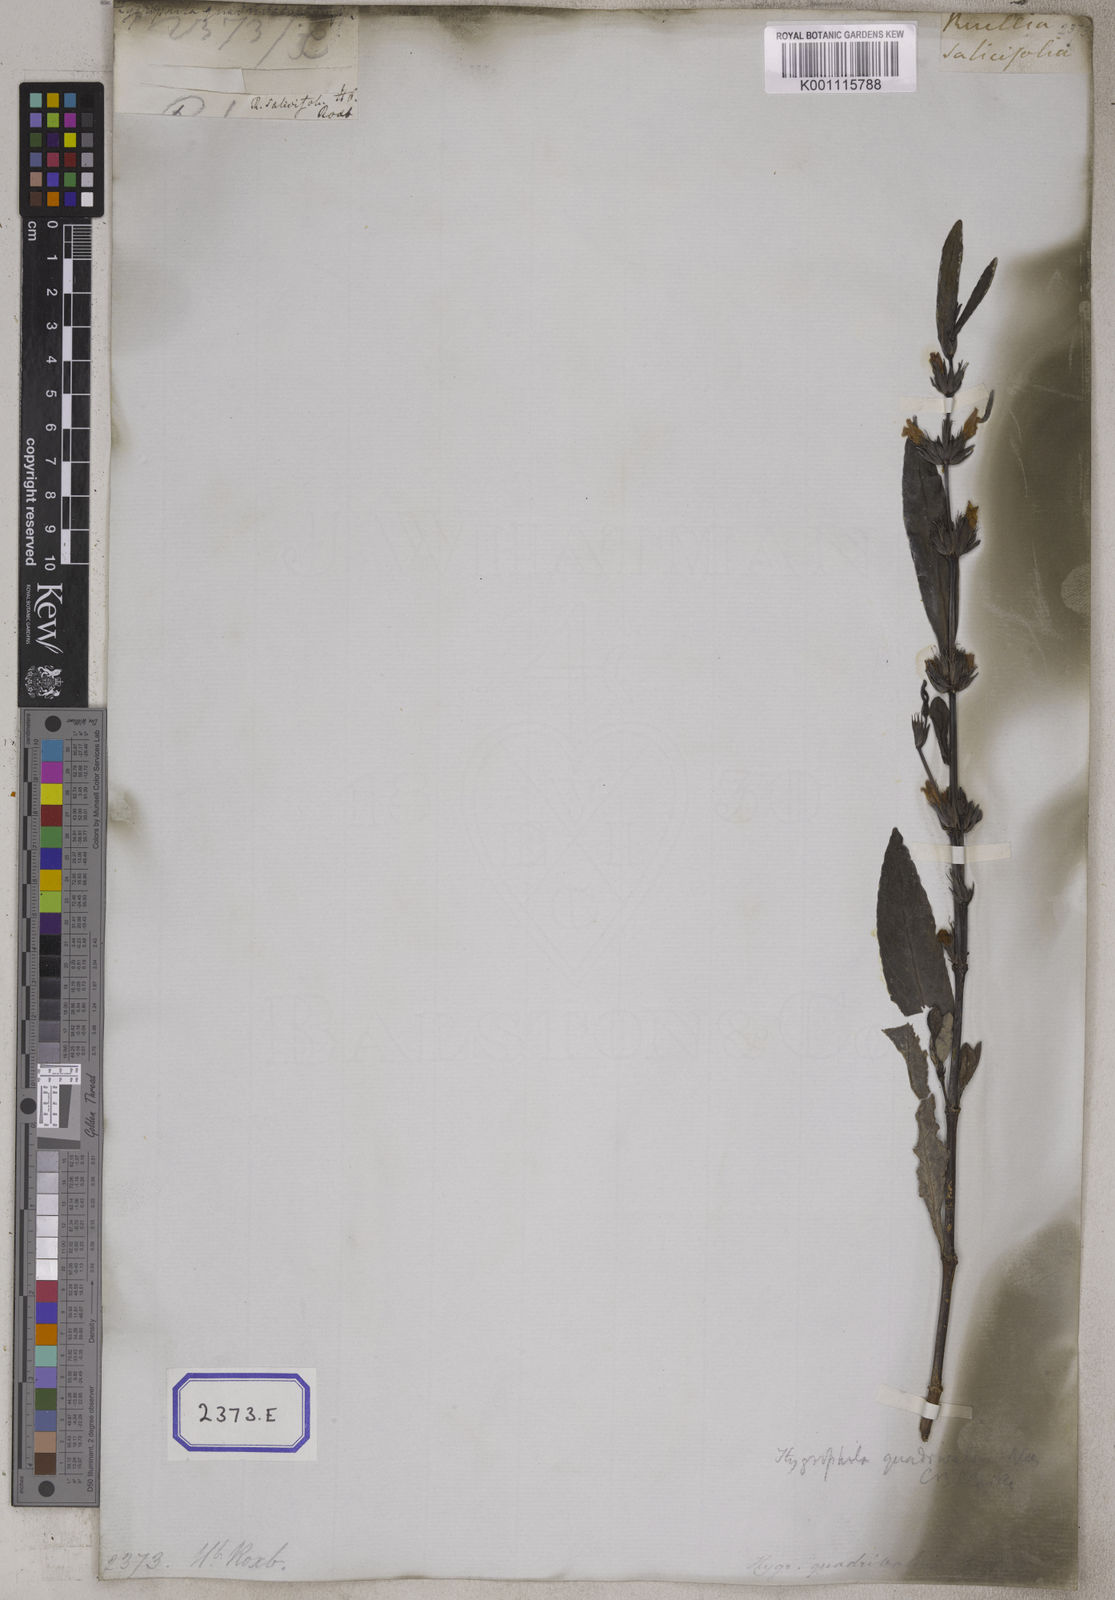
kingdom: Plantae
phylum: Tracheophyta
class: Magnoliopsida
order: Lamiales
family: Acanthaceae
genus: Hygrophila
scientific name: Hygrophila erecta
